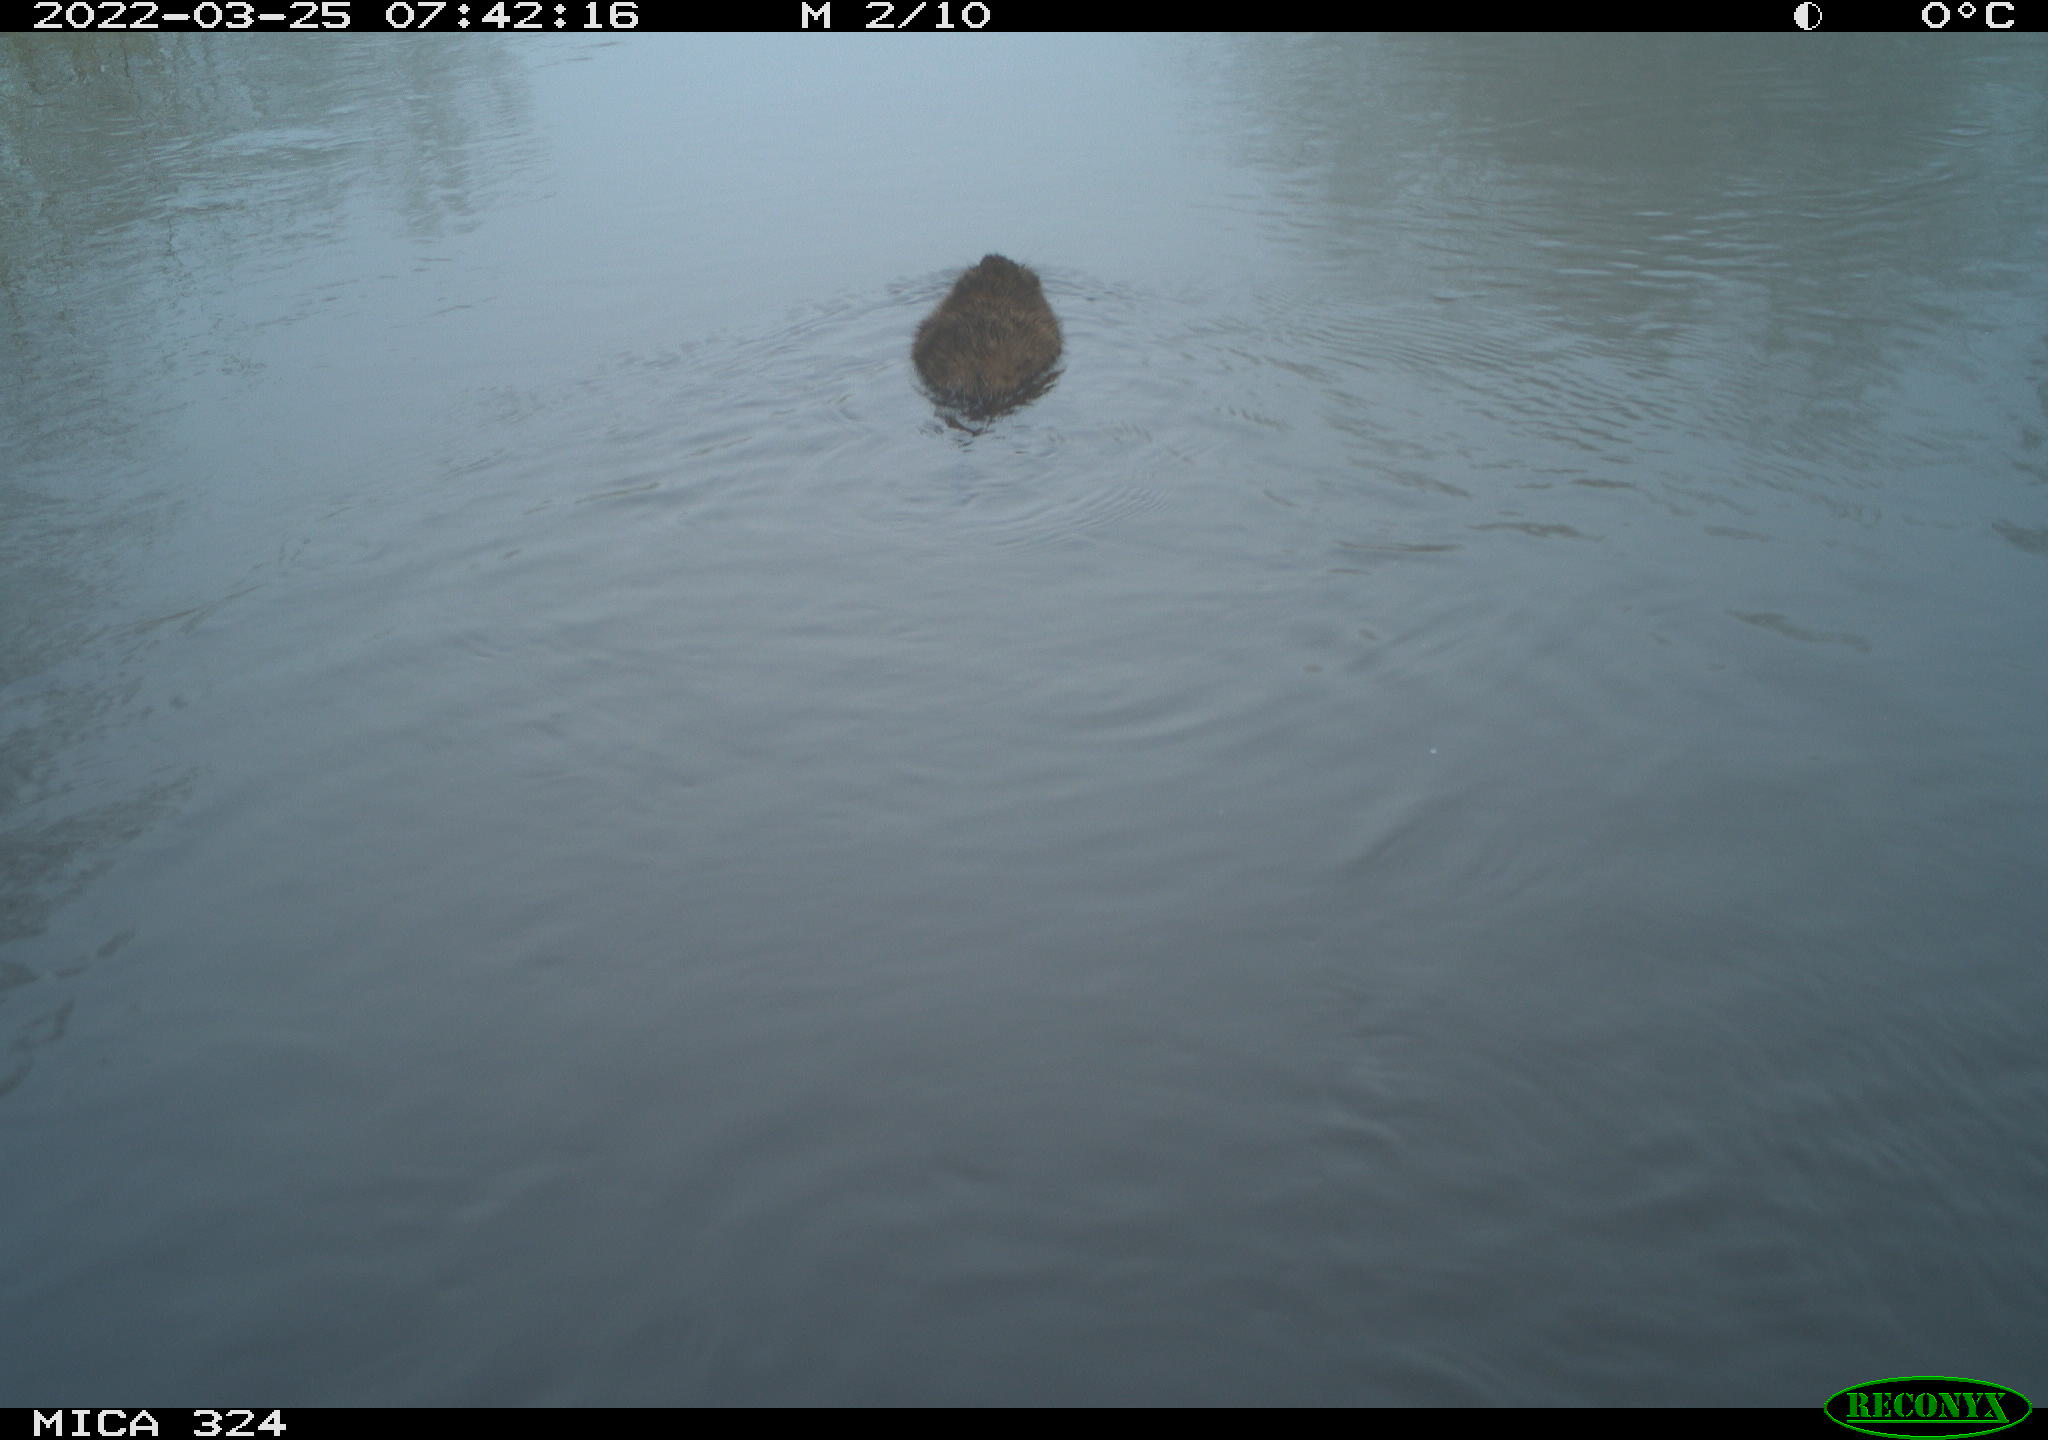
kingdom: Animalia
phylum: Chordata
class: Mammalia
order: Rodentia
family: Cricetidae
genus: Ondatra
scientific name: Ondatra zibethicus
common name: Muskrat
